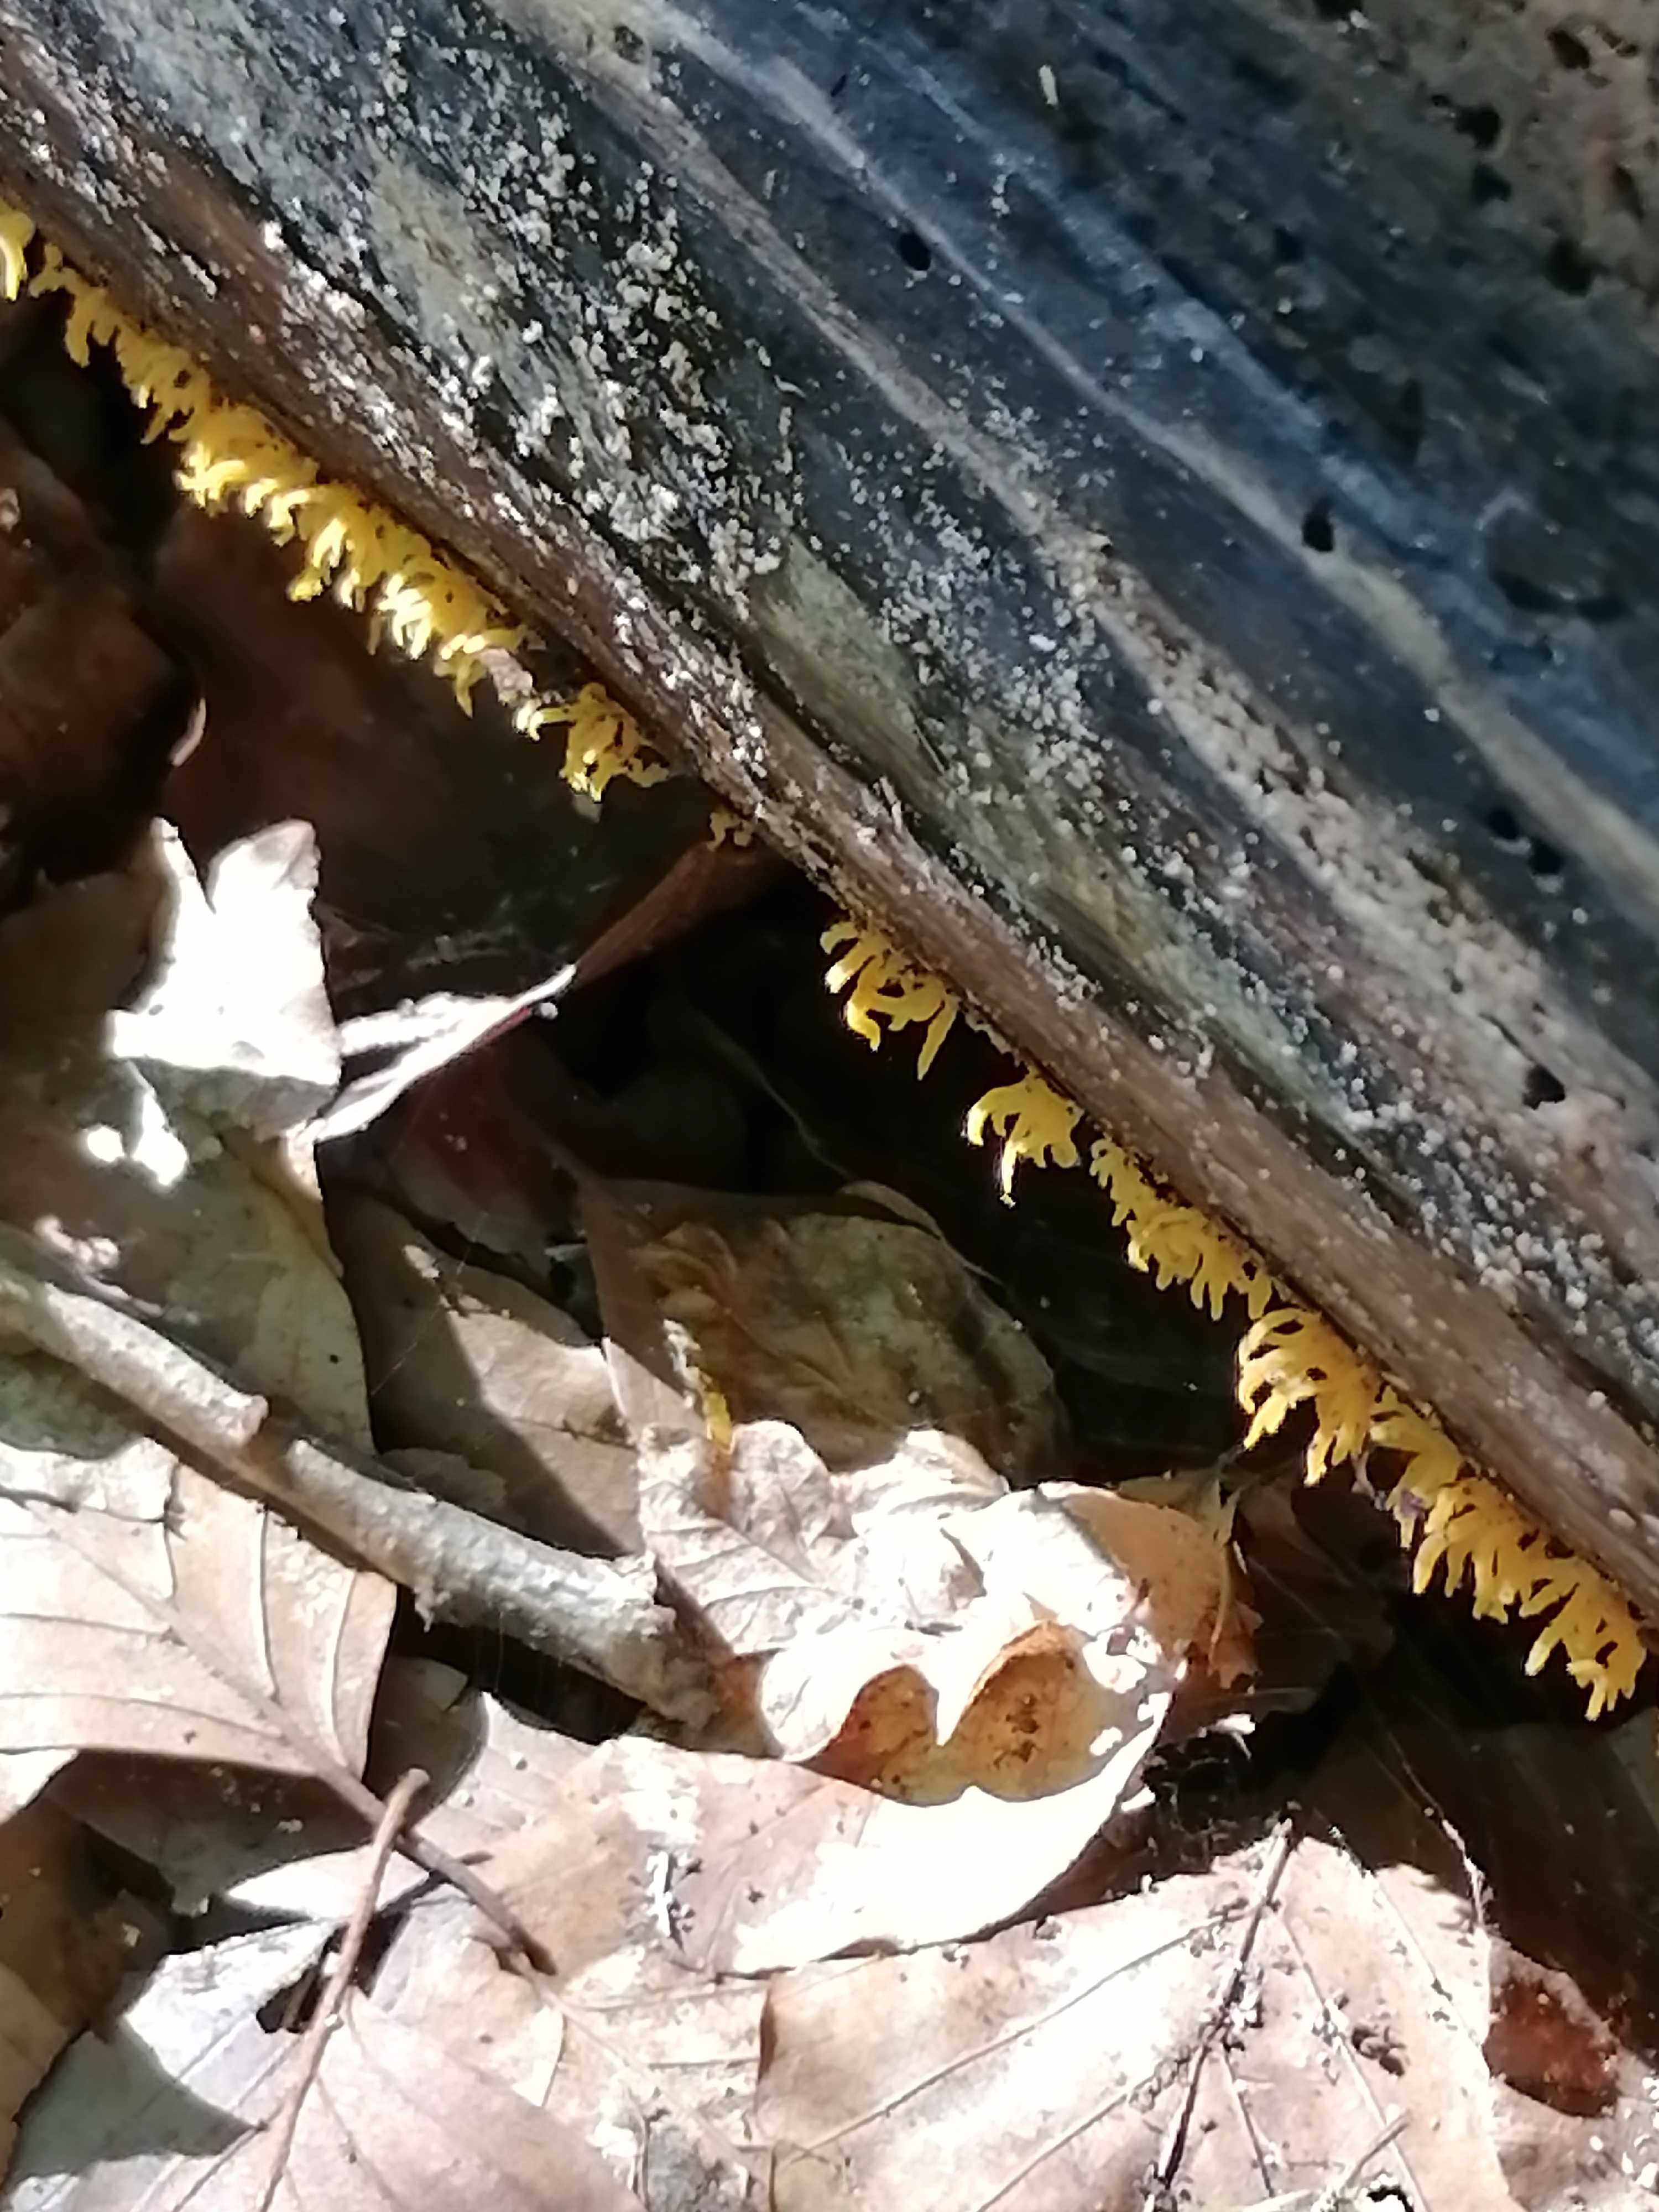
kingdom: Fungi
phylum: Basidiomycota
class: Dacrymycetes
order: Dacrymycetales
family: Dacrymycetaceae
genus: Calocera
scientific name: Calocera cornea
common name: liden guldgaffel
